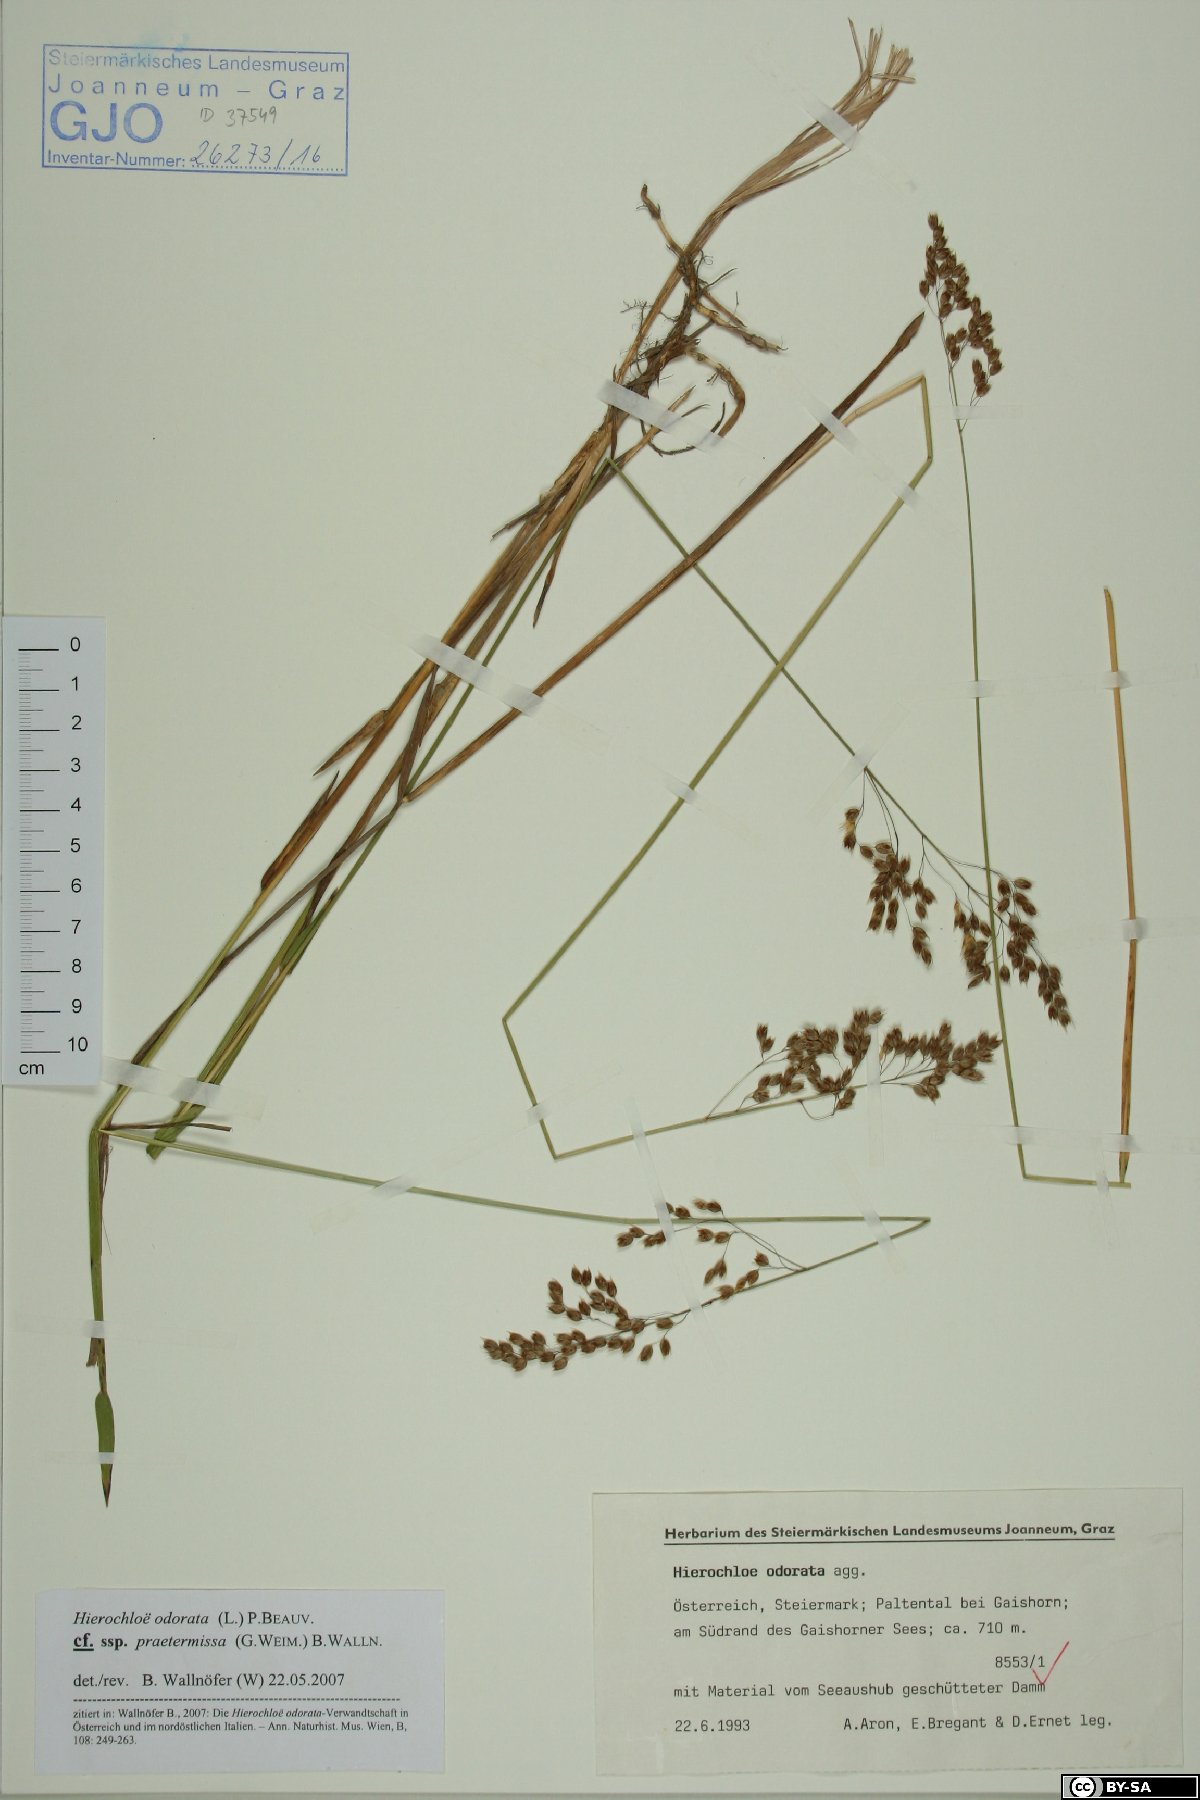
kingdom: Plantae
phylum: Tracheophyta
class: Liliopsida
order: Poales
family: Poaceae
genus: Anthoxanthum
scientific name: Anthoxanthum nitens
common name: Holy grass
